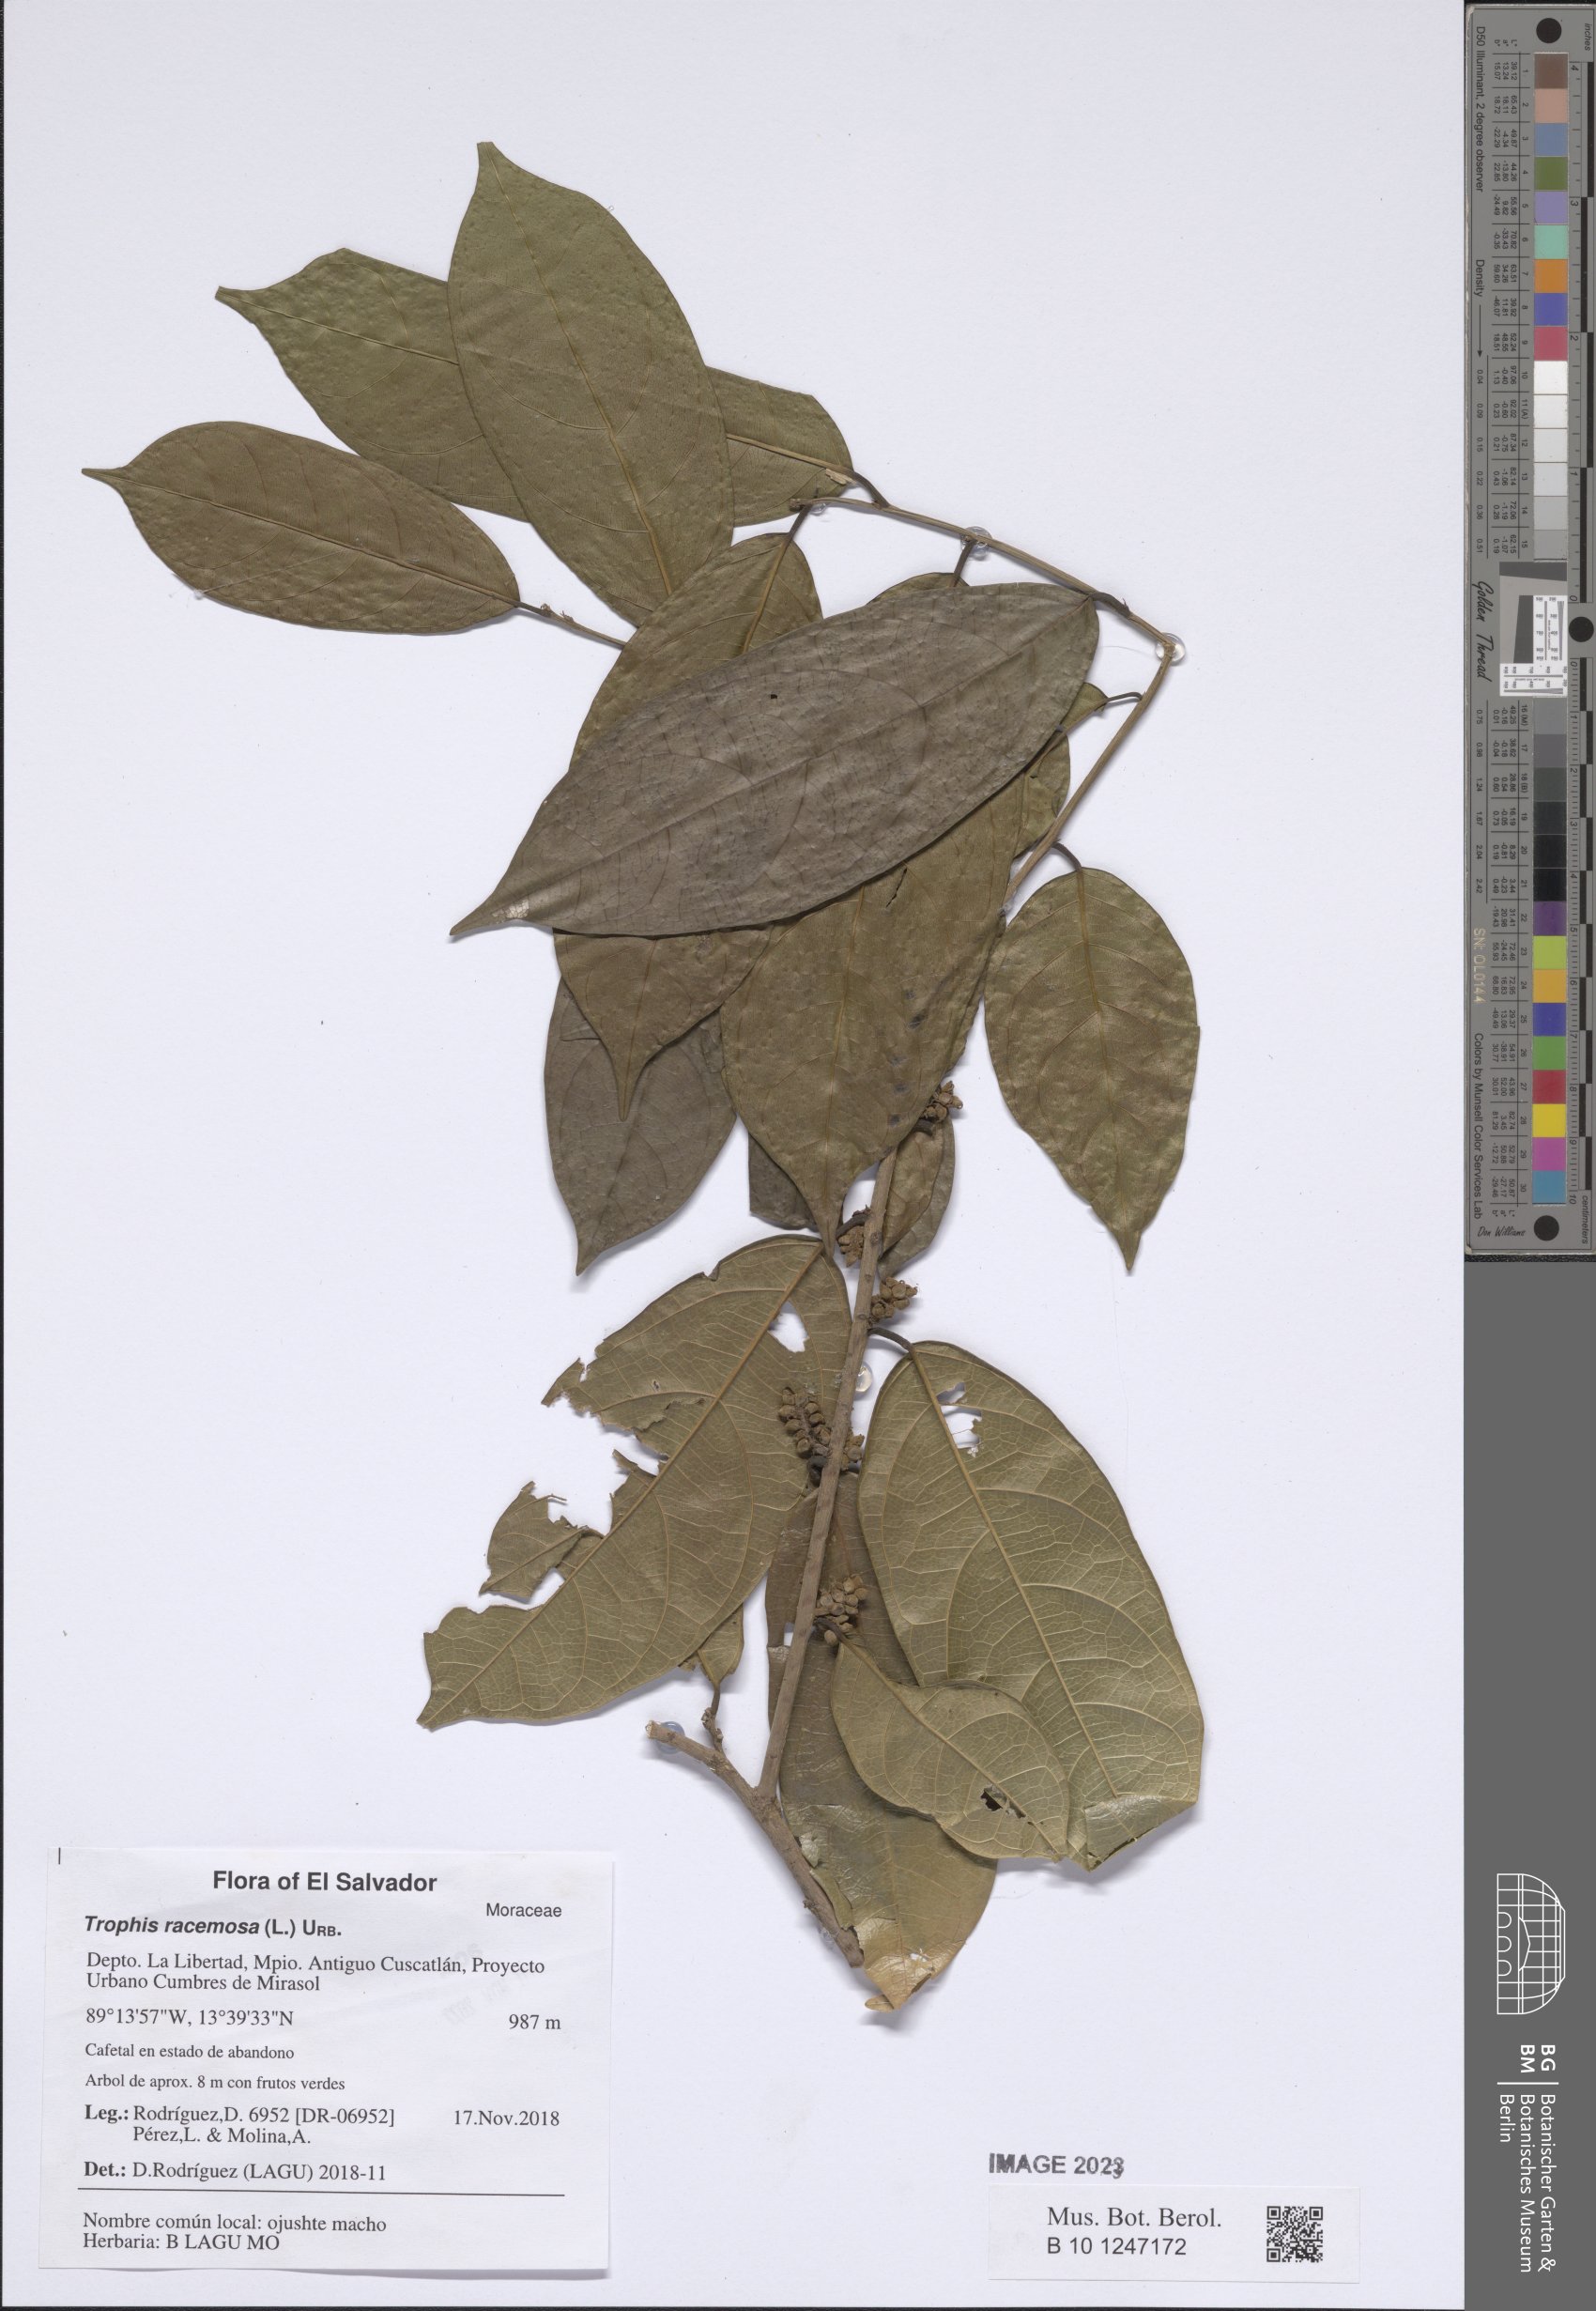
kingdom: Plantae
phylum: Tracheophyta
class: Magnoliopsida
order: Rosales
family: Moraceae
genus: Trophis
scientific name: Trophis racemosa
